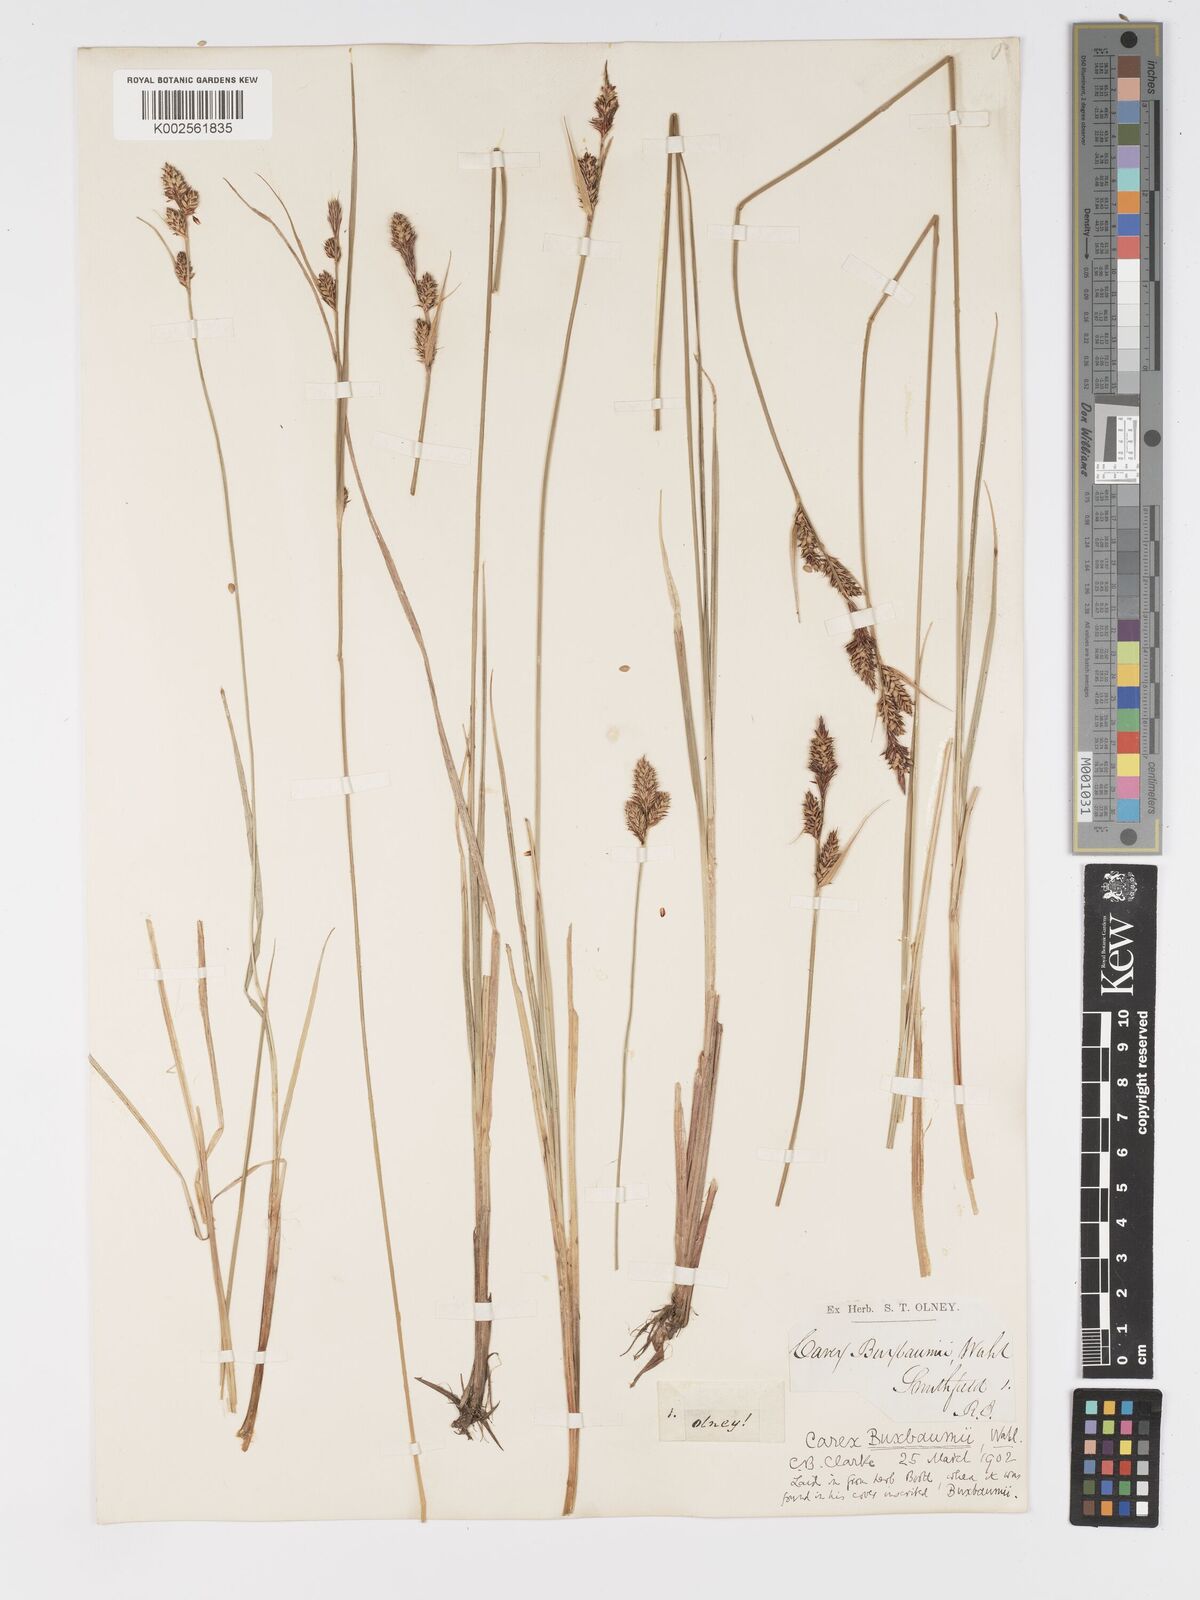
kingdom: Plantae
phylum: Tracheophyta
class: Liliopsida
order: Poales
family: Cyperaceae
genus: Carex
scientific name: Carex buxbaumii
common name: Club sedge
